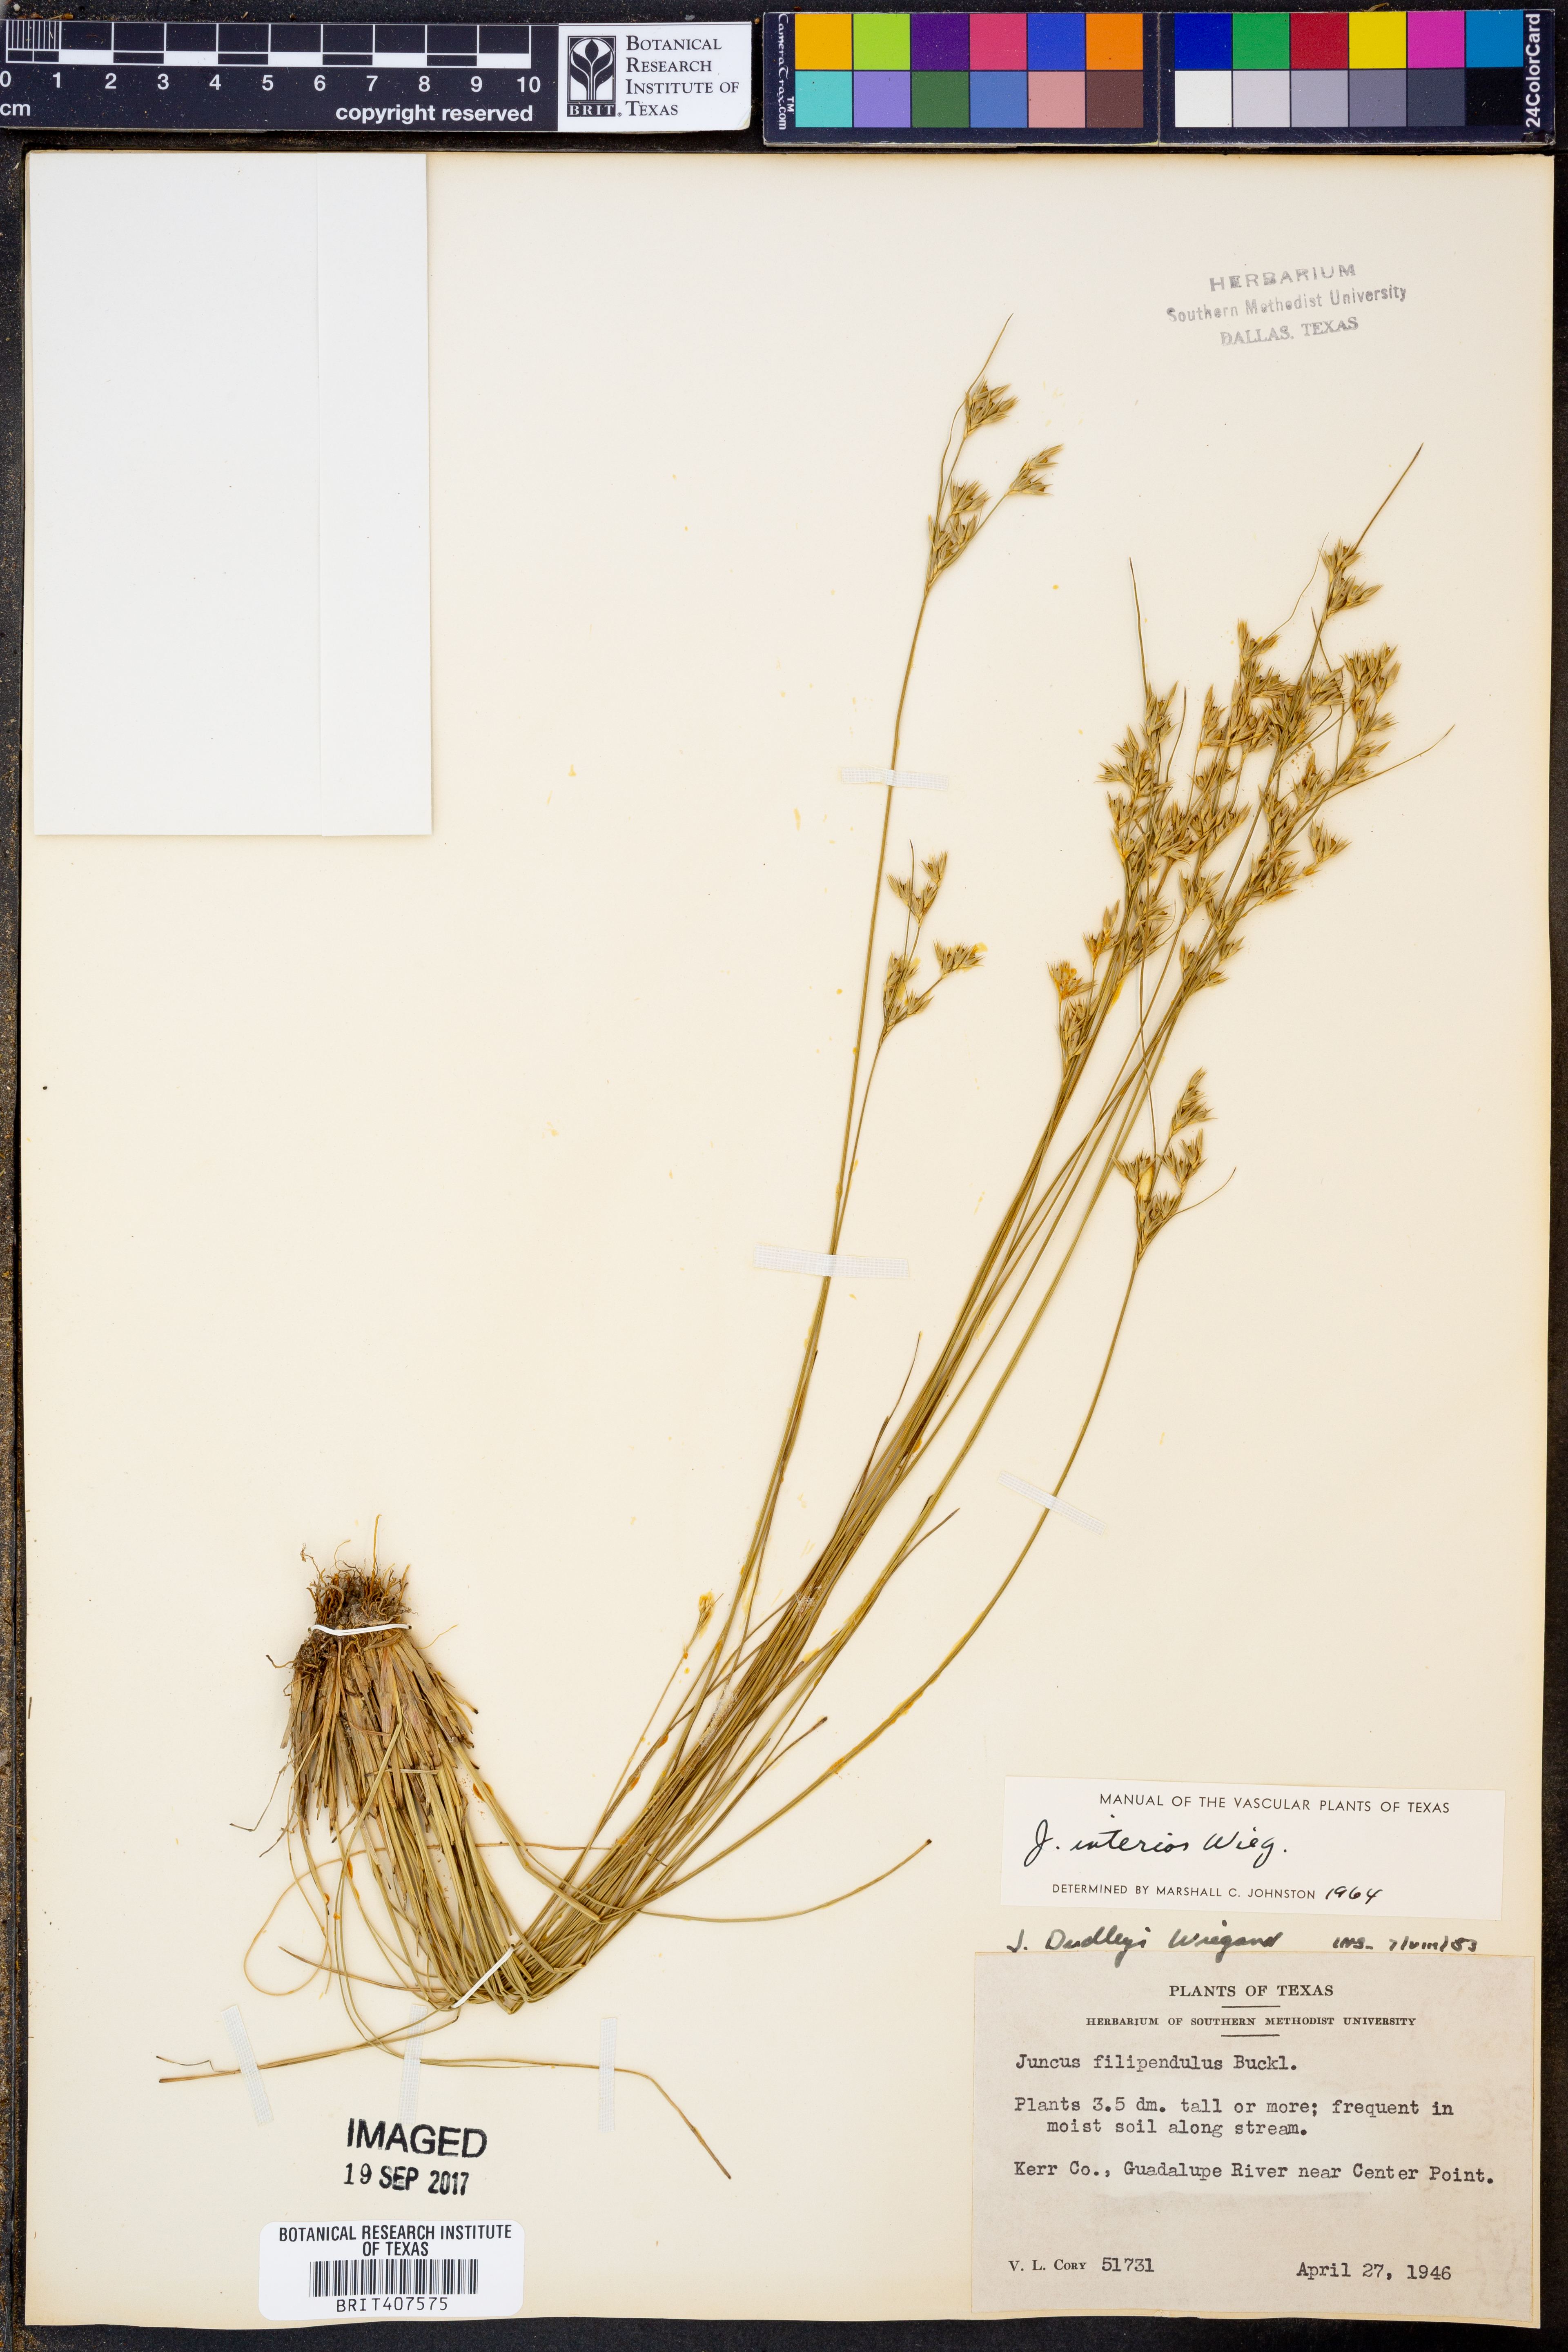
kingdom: Plantae
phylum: Tracheophyta
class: Liliopsida
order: Poales
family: Juncaceae
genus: Juncus
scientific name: Juncus interior
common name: Interior rush
